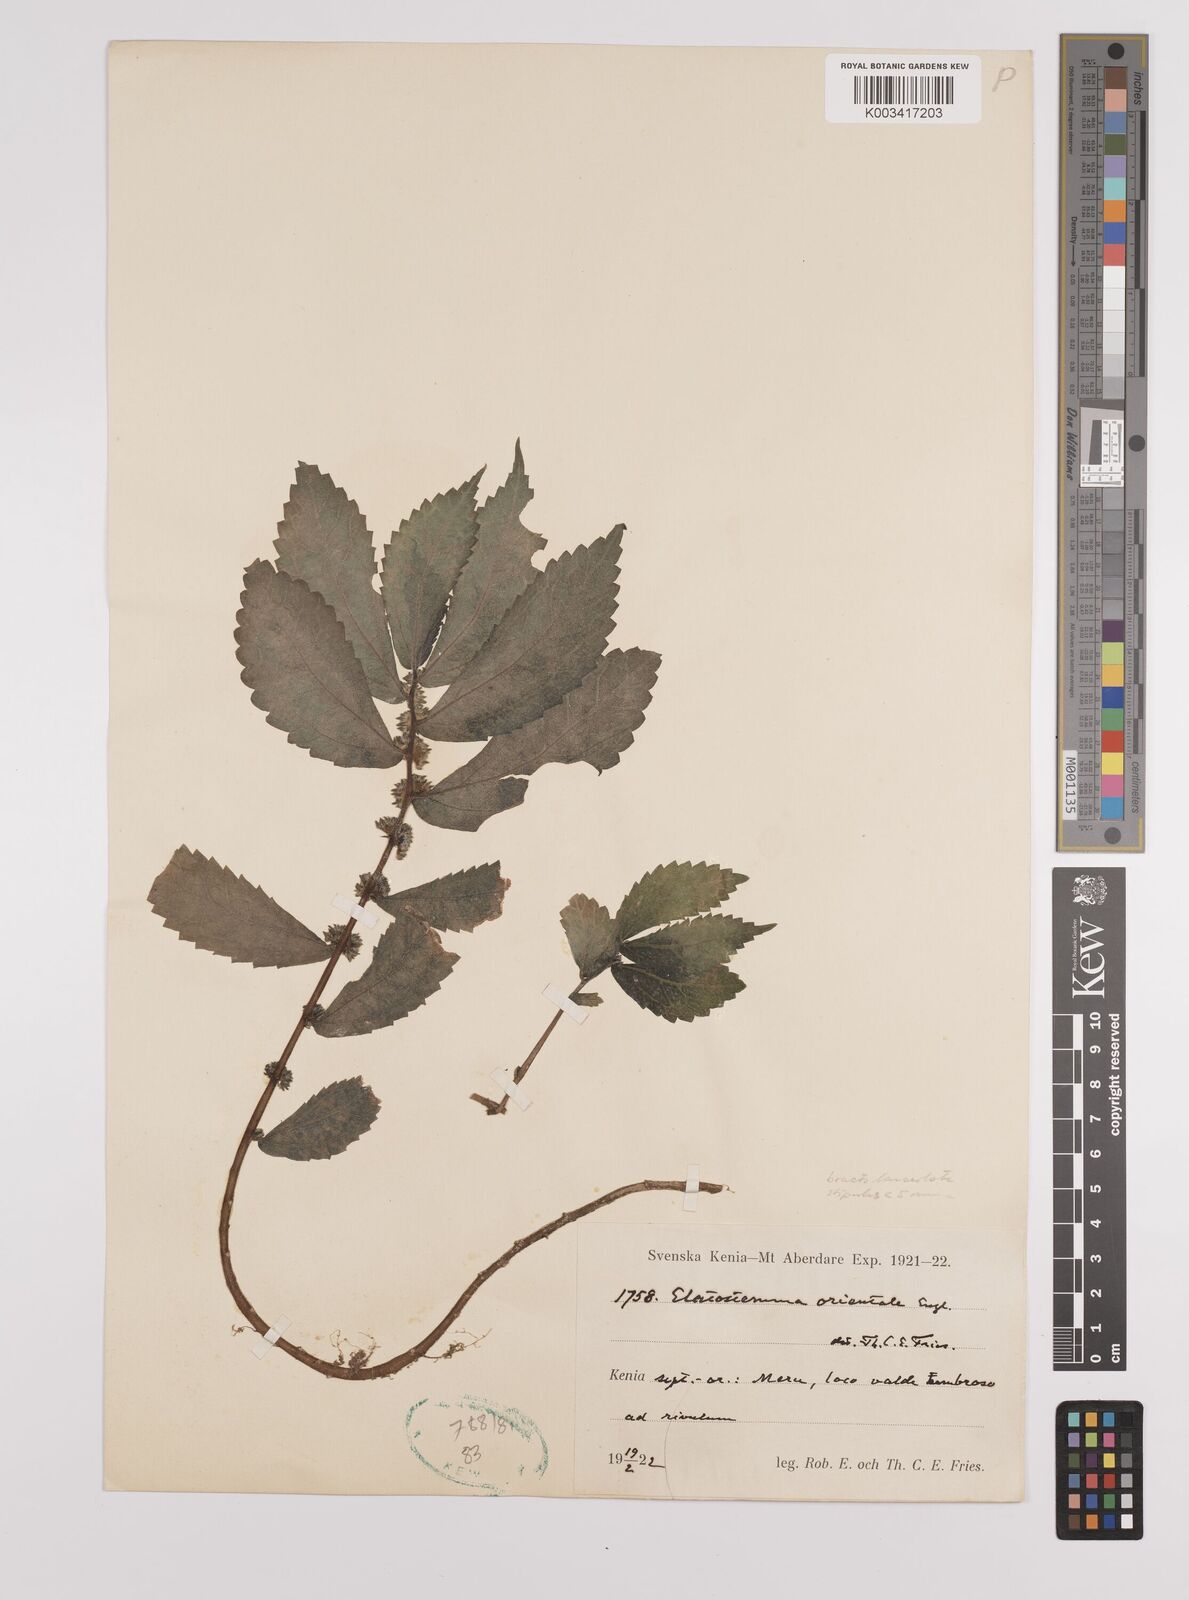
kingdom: Plantae
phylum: Tracheophyta
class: Magnoliopsida
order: Rosales
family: Urticaceae
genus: Elatostema
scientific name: Elatostema monticola
